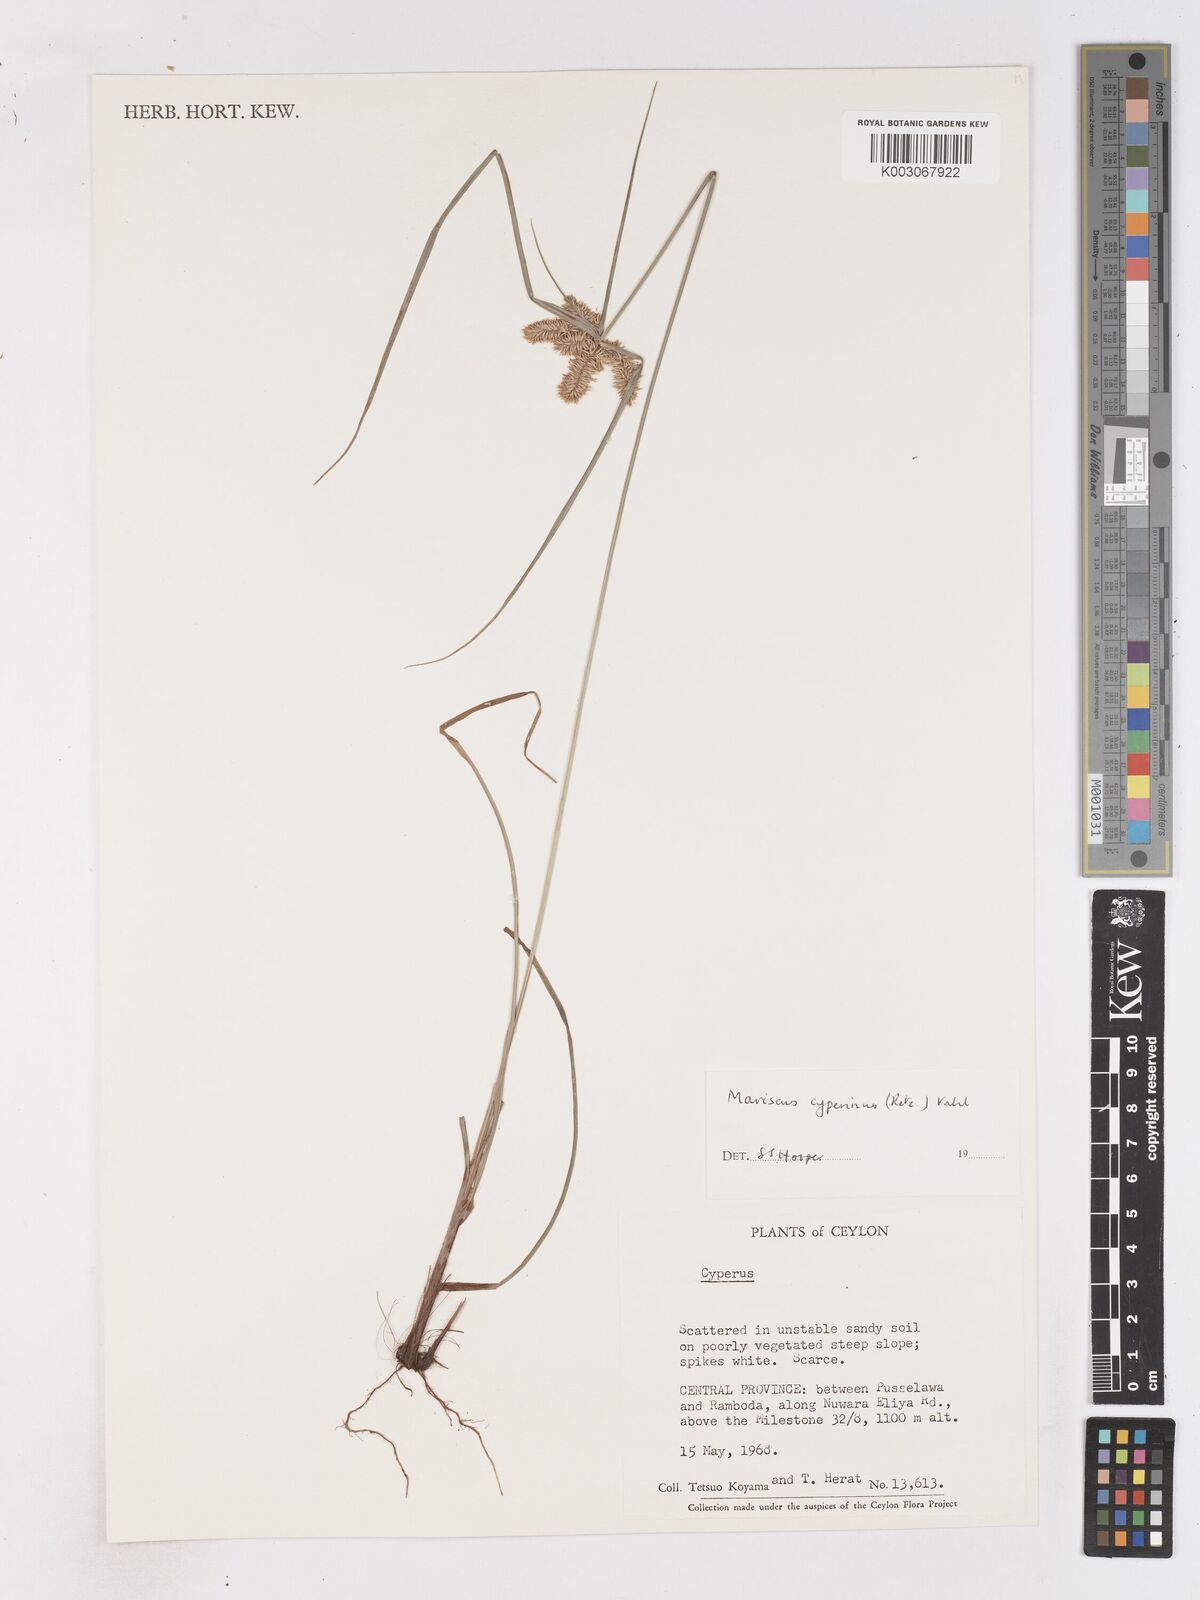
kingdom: Plantae
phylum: Tracheophyta
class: Liliopsida
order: Poales
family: Cyperaceae
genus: Cyperus
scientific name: Cyperus cyperinus
